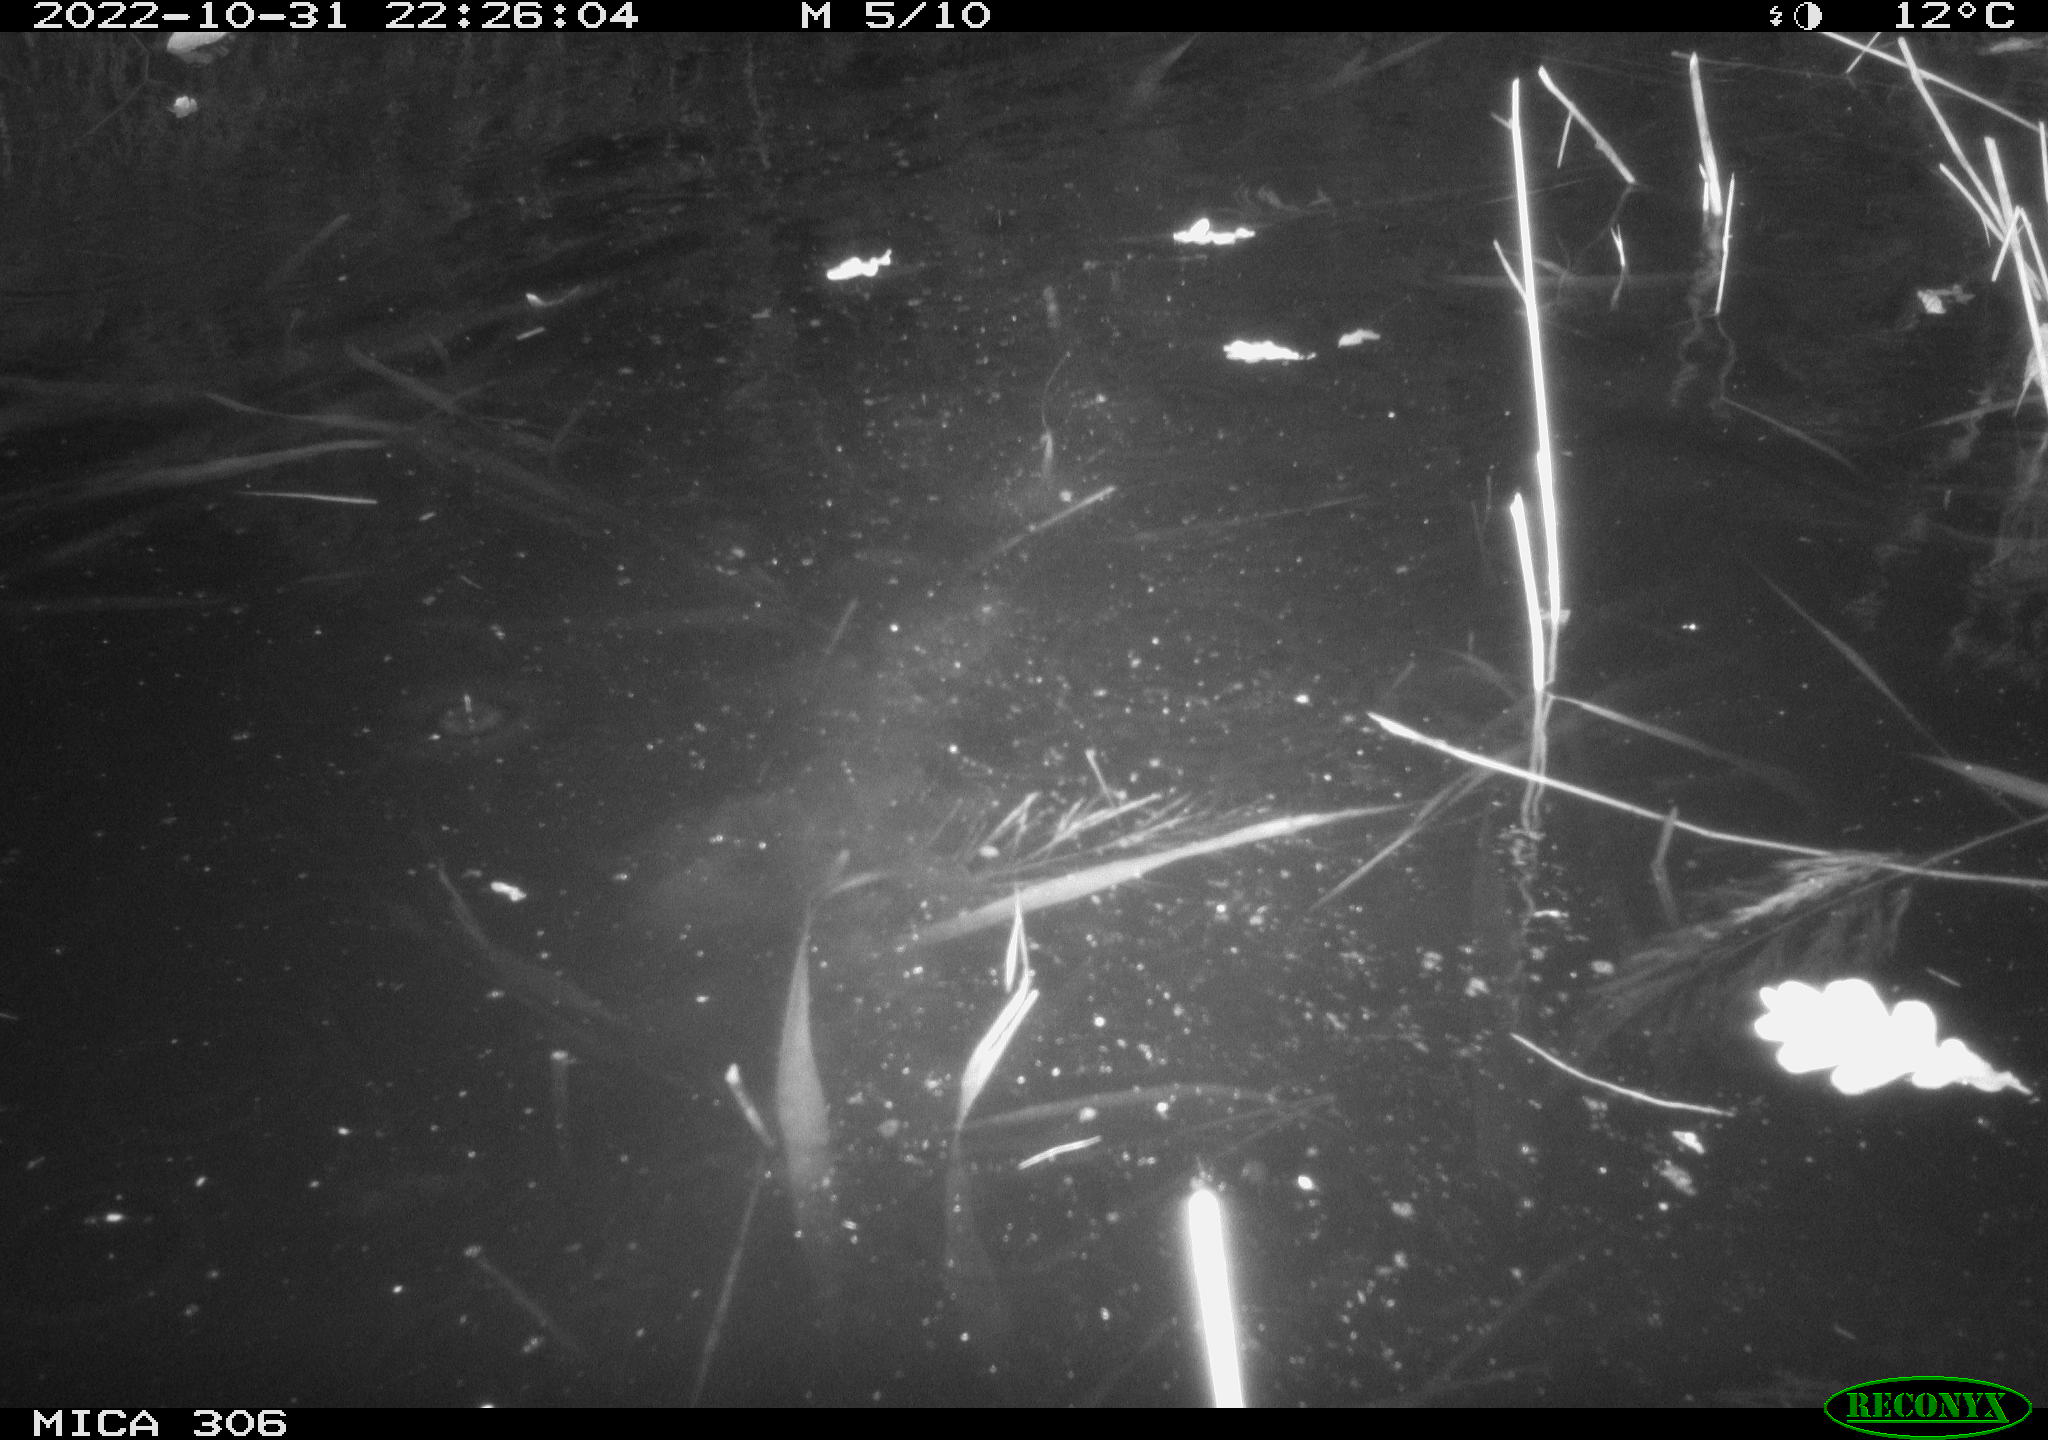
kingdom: Animalia
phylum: Chordata
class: Mammalia
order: Rodentia
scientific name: Rodentia
